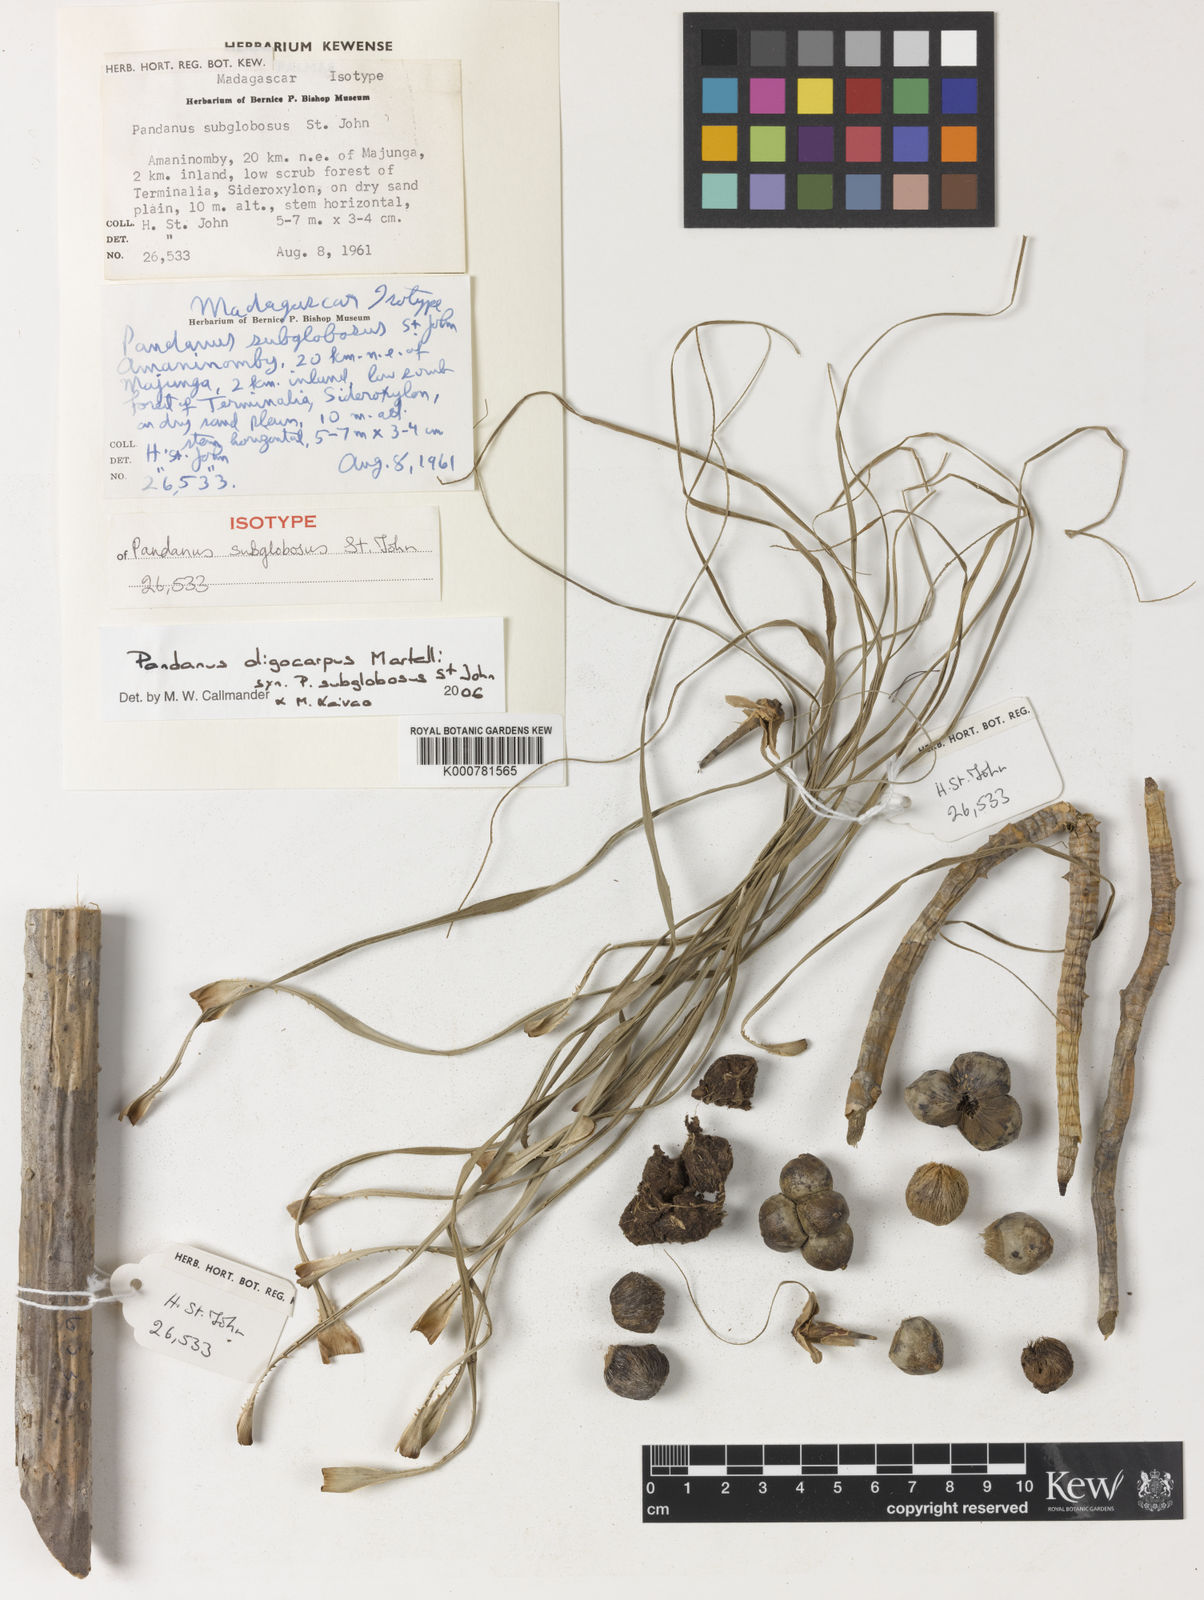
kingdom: Plantae
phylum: Tracheophyta
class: Liliopsida
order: Pandanales
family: Pandanaceae
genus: Pandanus
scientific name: Pandanus oligocarpus
